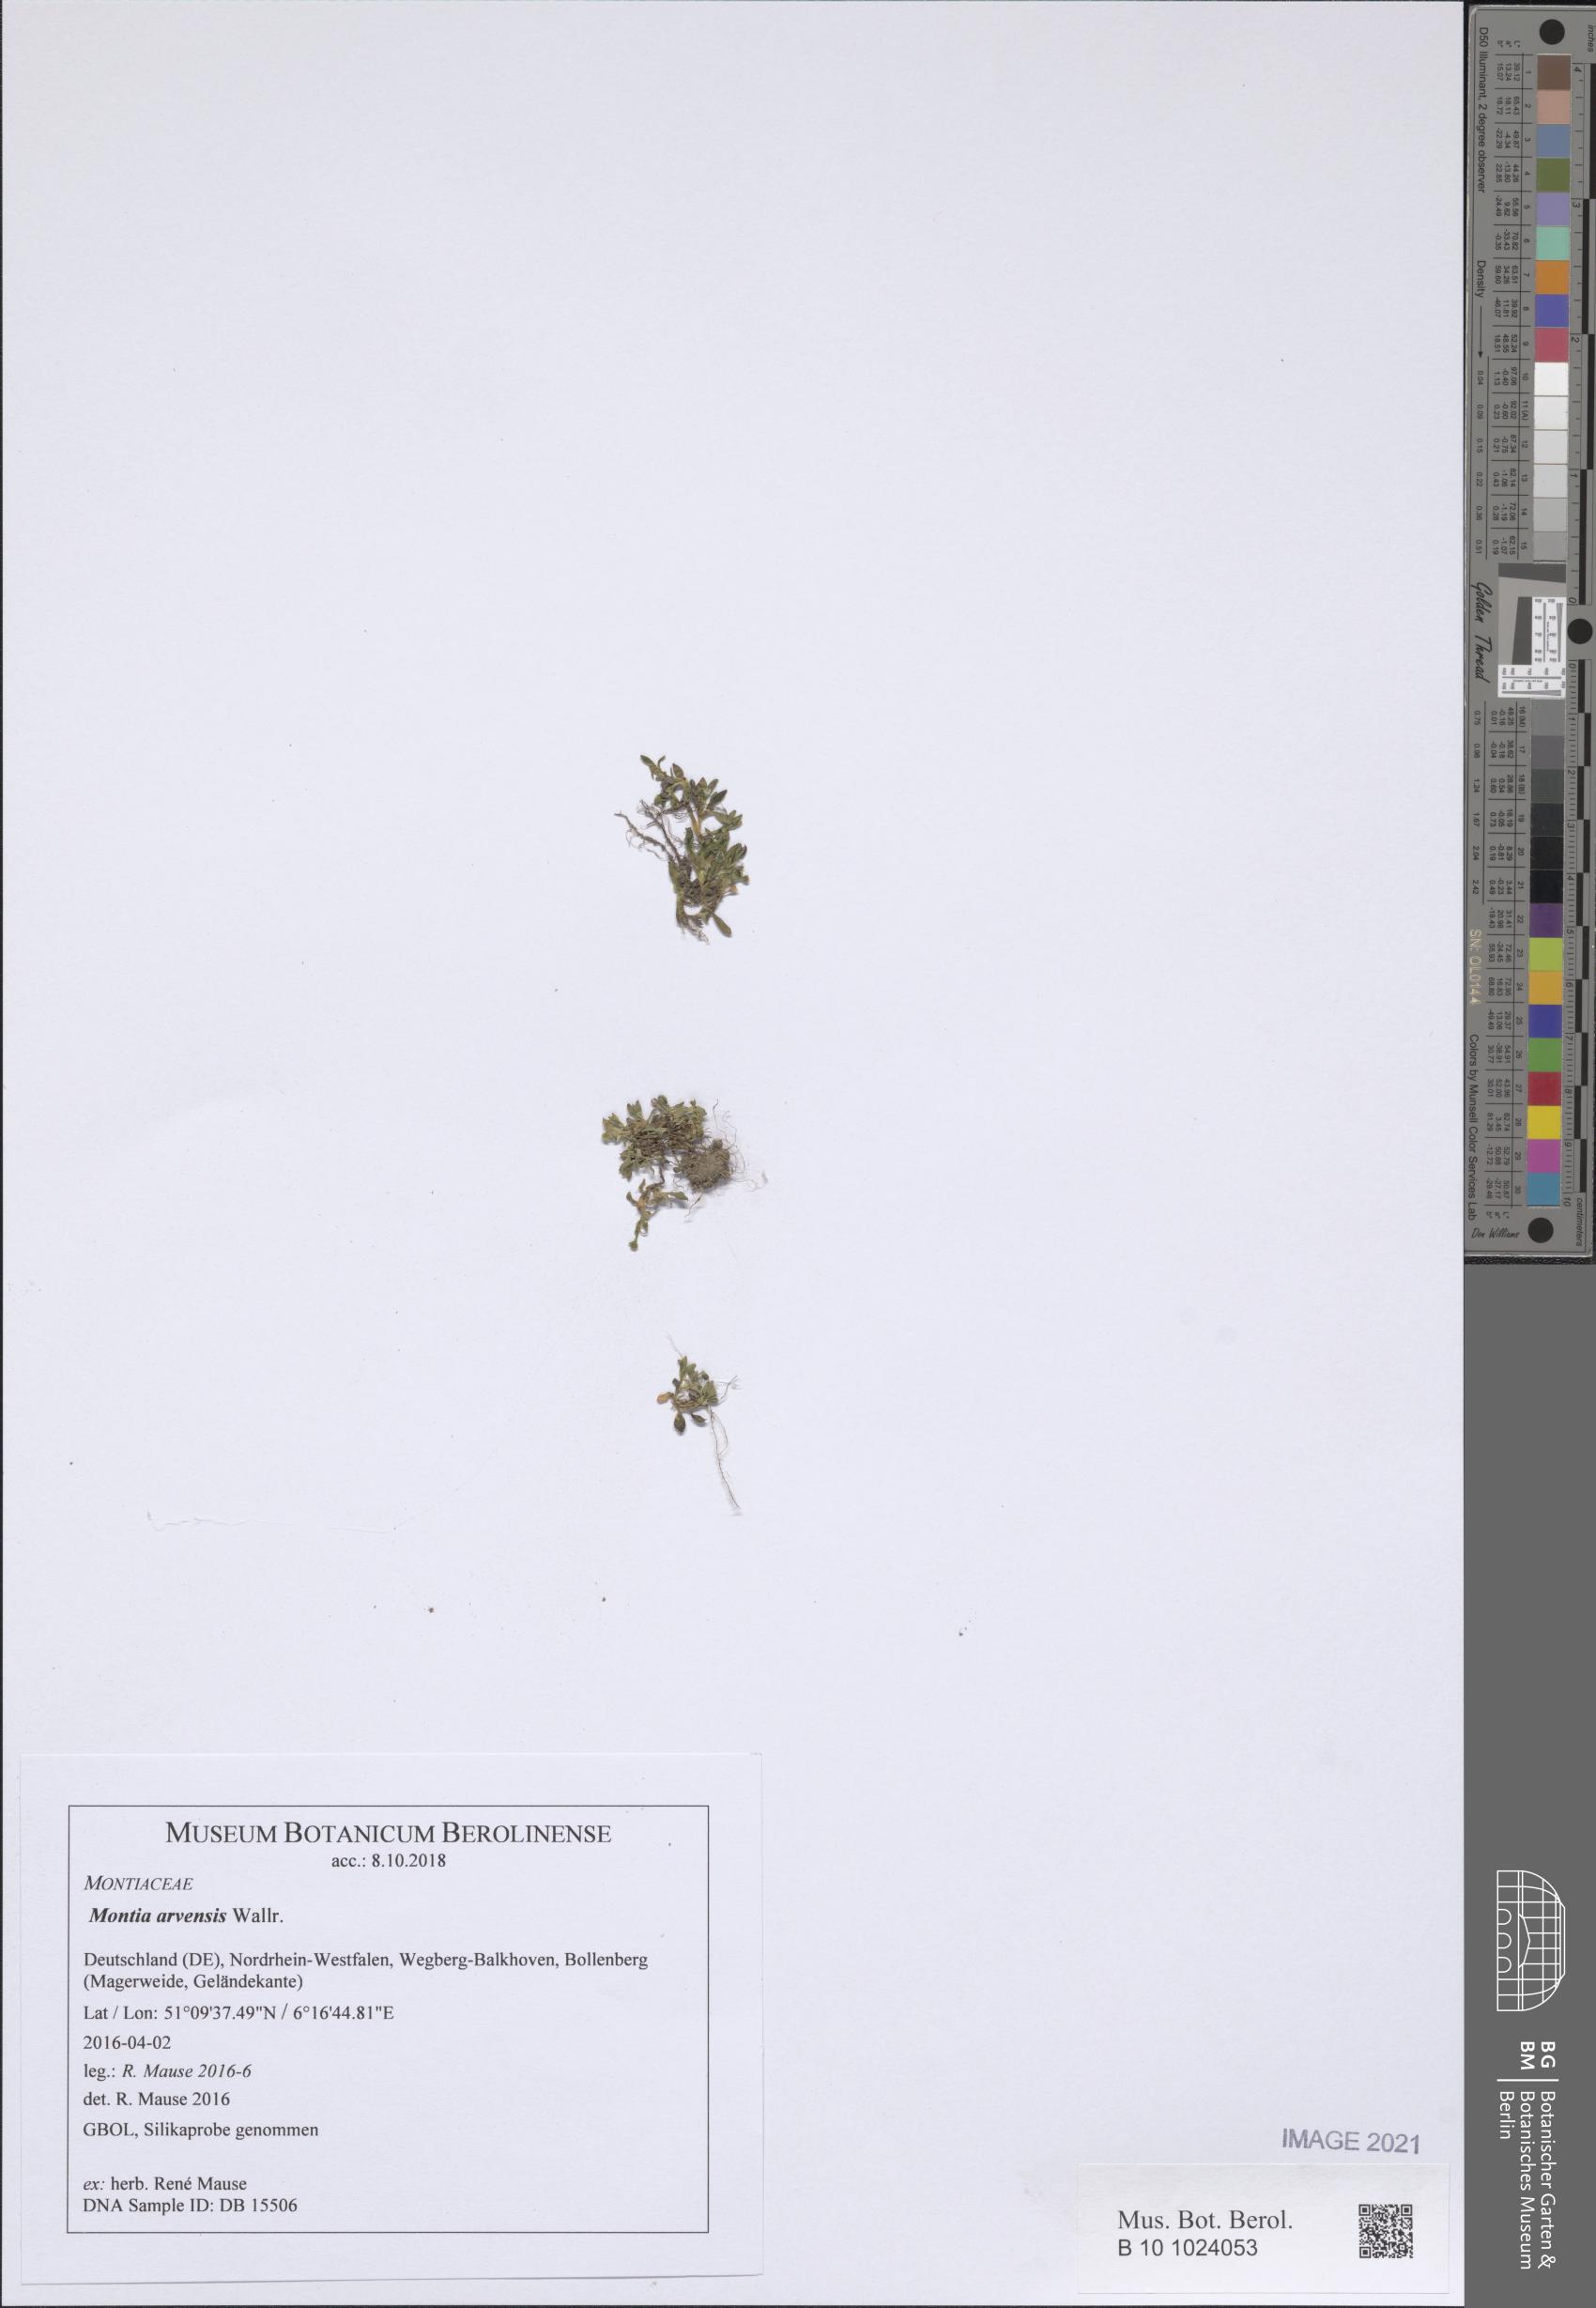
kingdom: Plantae
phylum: Tracheophyta
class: Magnoliopsida
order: Caryophyllales
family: Montiaceae
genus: Montia
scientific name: Montia arvensis
